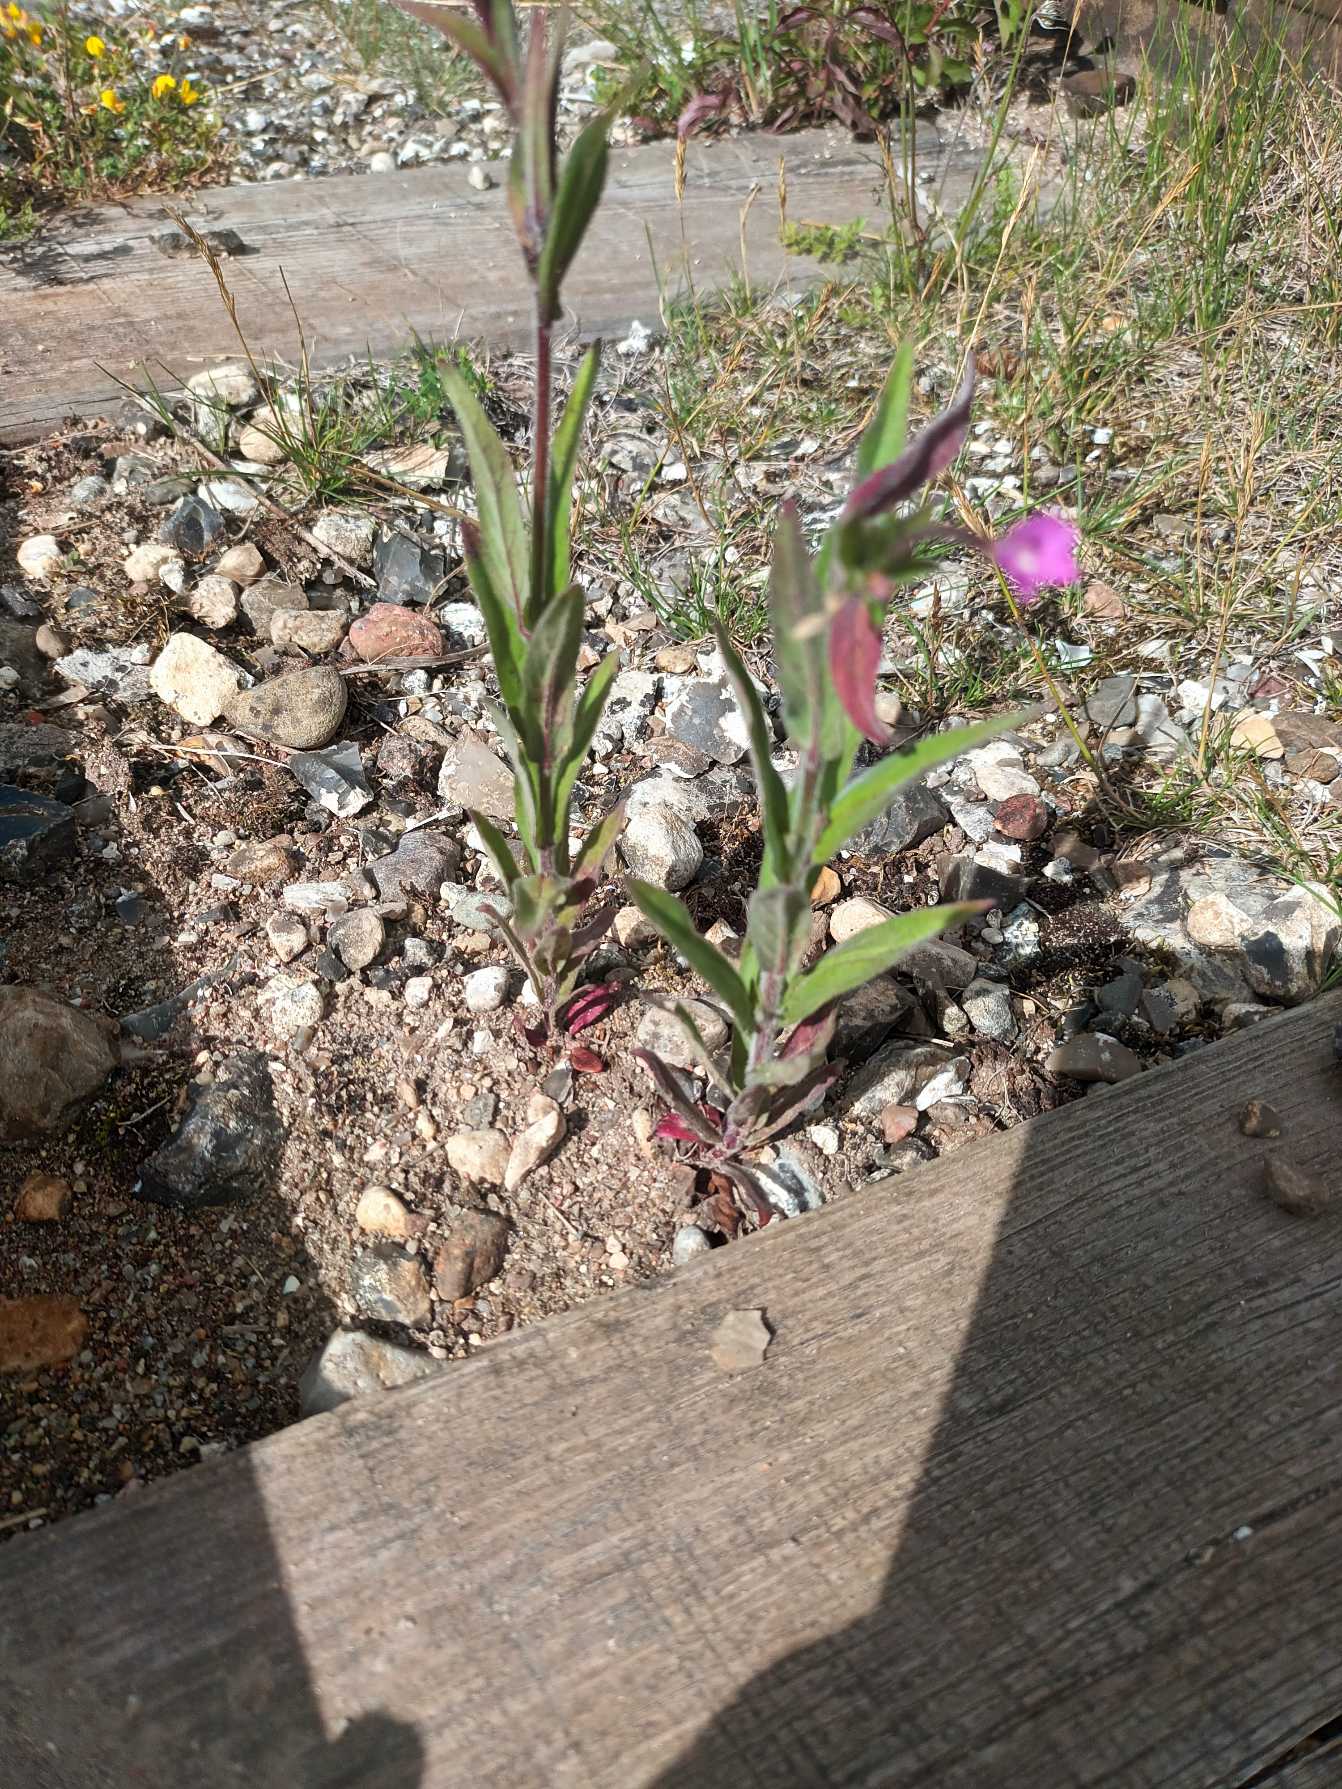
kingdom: Plantae
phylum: Tracheophyta
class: Magnoliopsida
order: Myrtales
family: Onagraceae
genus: Epilobium
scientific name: Epilobium parviflorum
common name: Dunet dueurt
